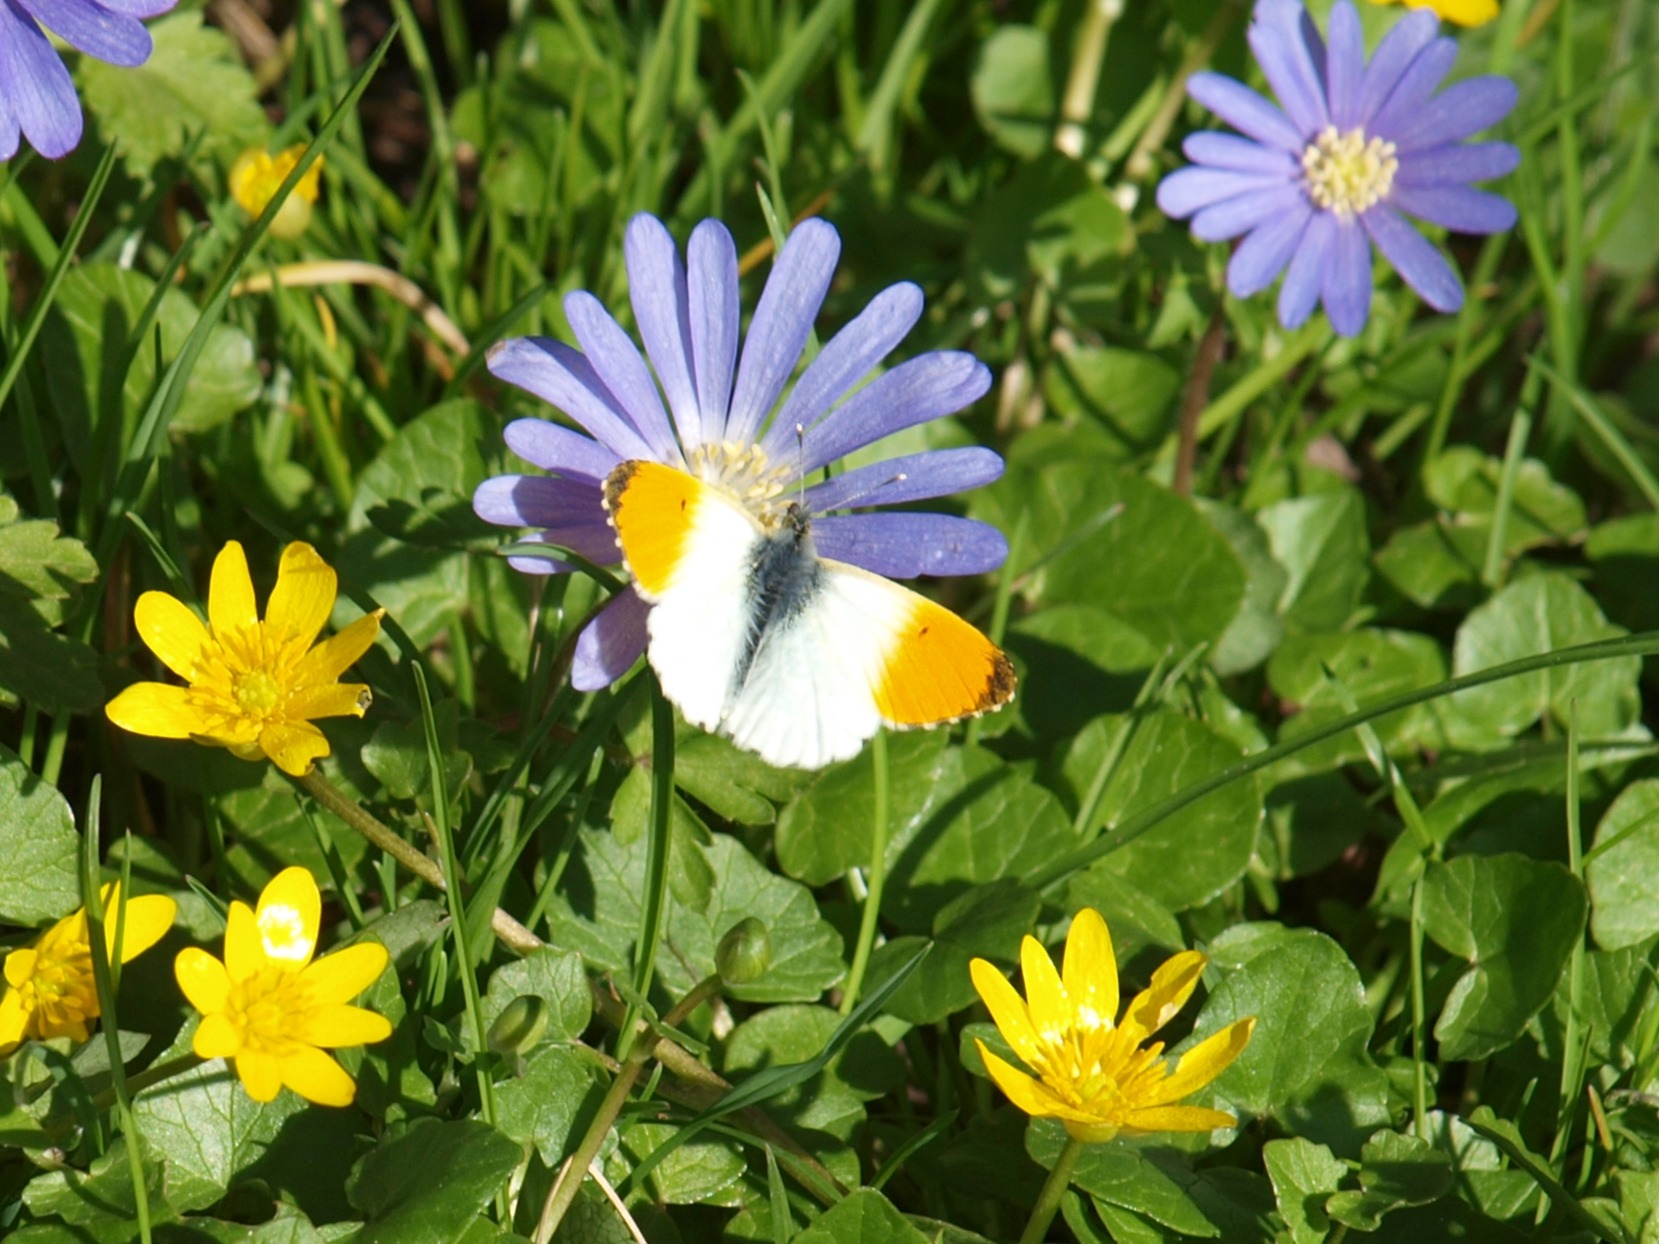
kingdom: Animalia
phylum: Arthropoda
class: Insecta
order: Lepidoptera
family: Pieridae
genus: Anthocharis
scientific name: Anthocharis cardamines
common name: Aurora
